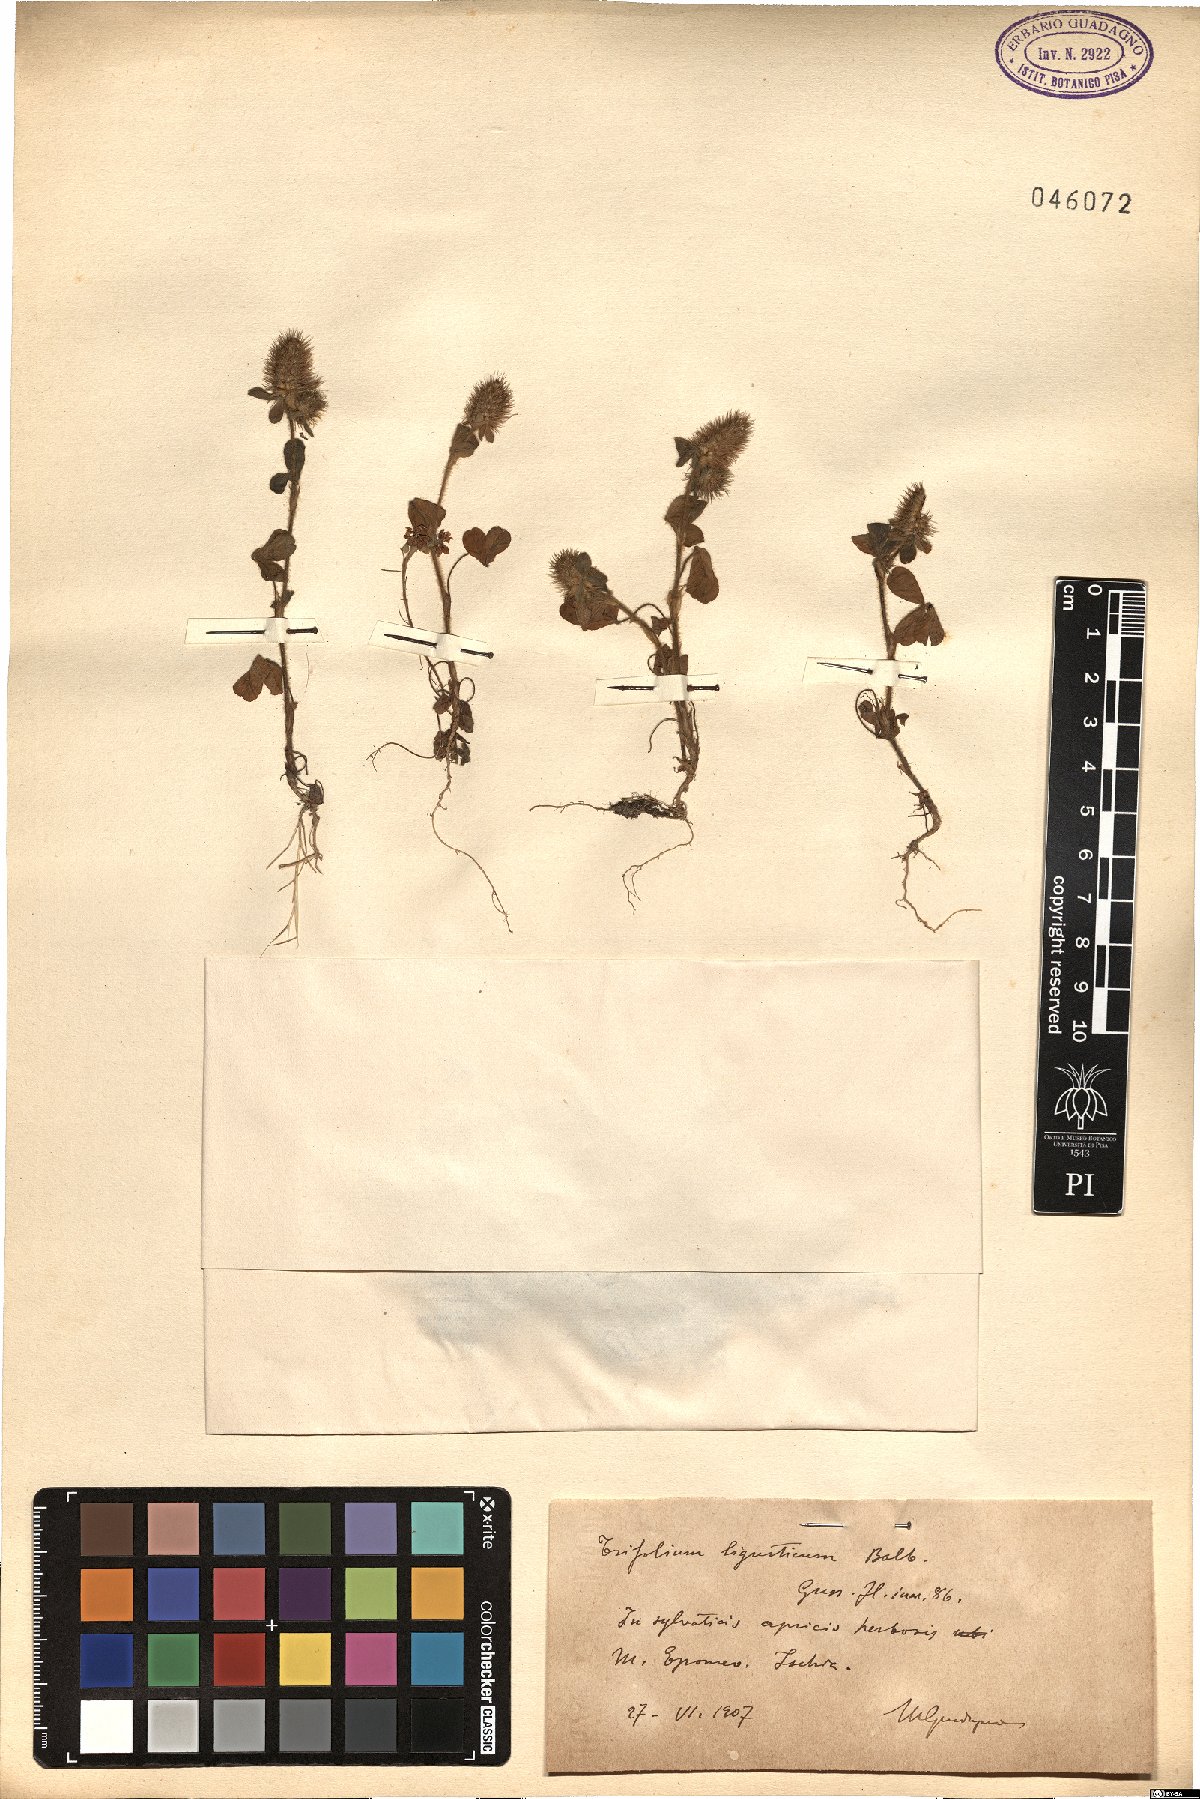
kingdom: Plantae
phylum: Tracheophyta
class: Magnoliopsida
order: Fabales
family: Fabaceae
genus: Trifolium
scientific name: Trifolium ligusticum
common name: Ligurian clover
